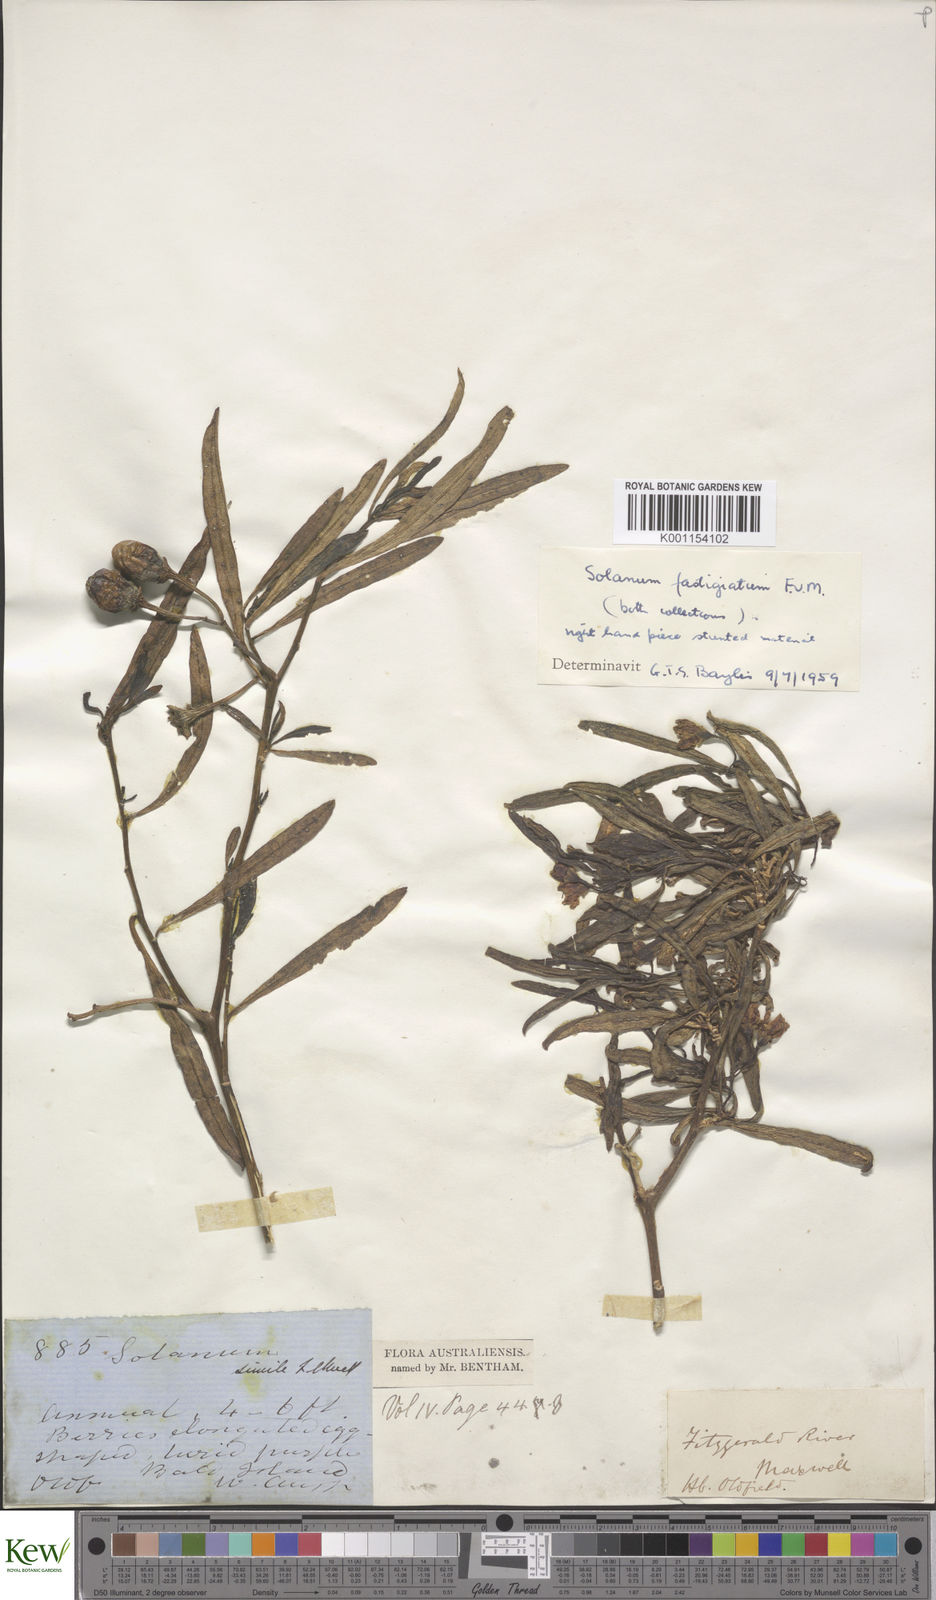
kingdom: Plantae
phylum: Tracheophyta
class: Magnoliopsida
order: Solanales
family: Solanaceae
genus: Solanum
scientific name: Solanum symonii
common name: South australian kangaroo-apple
